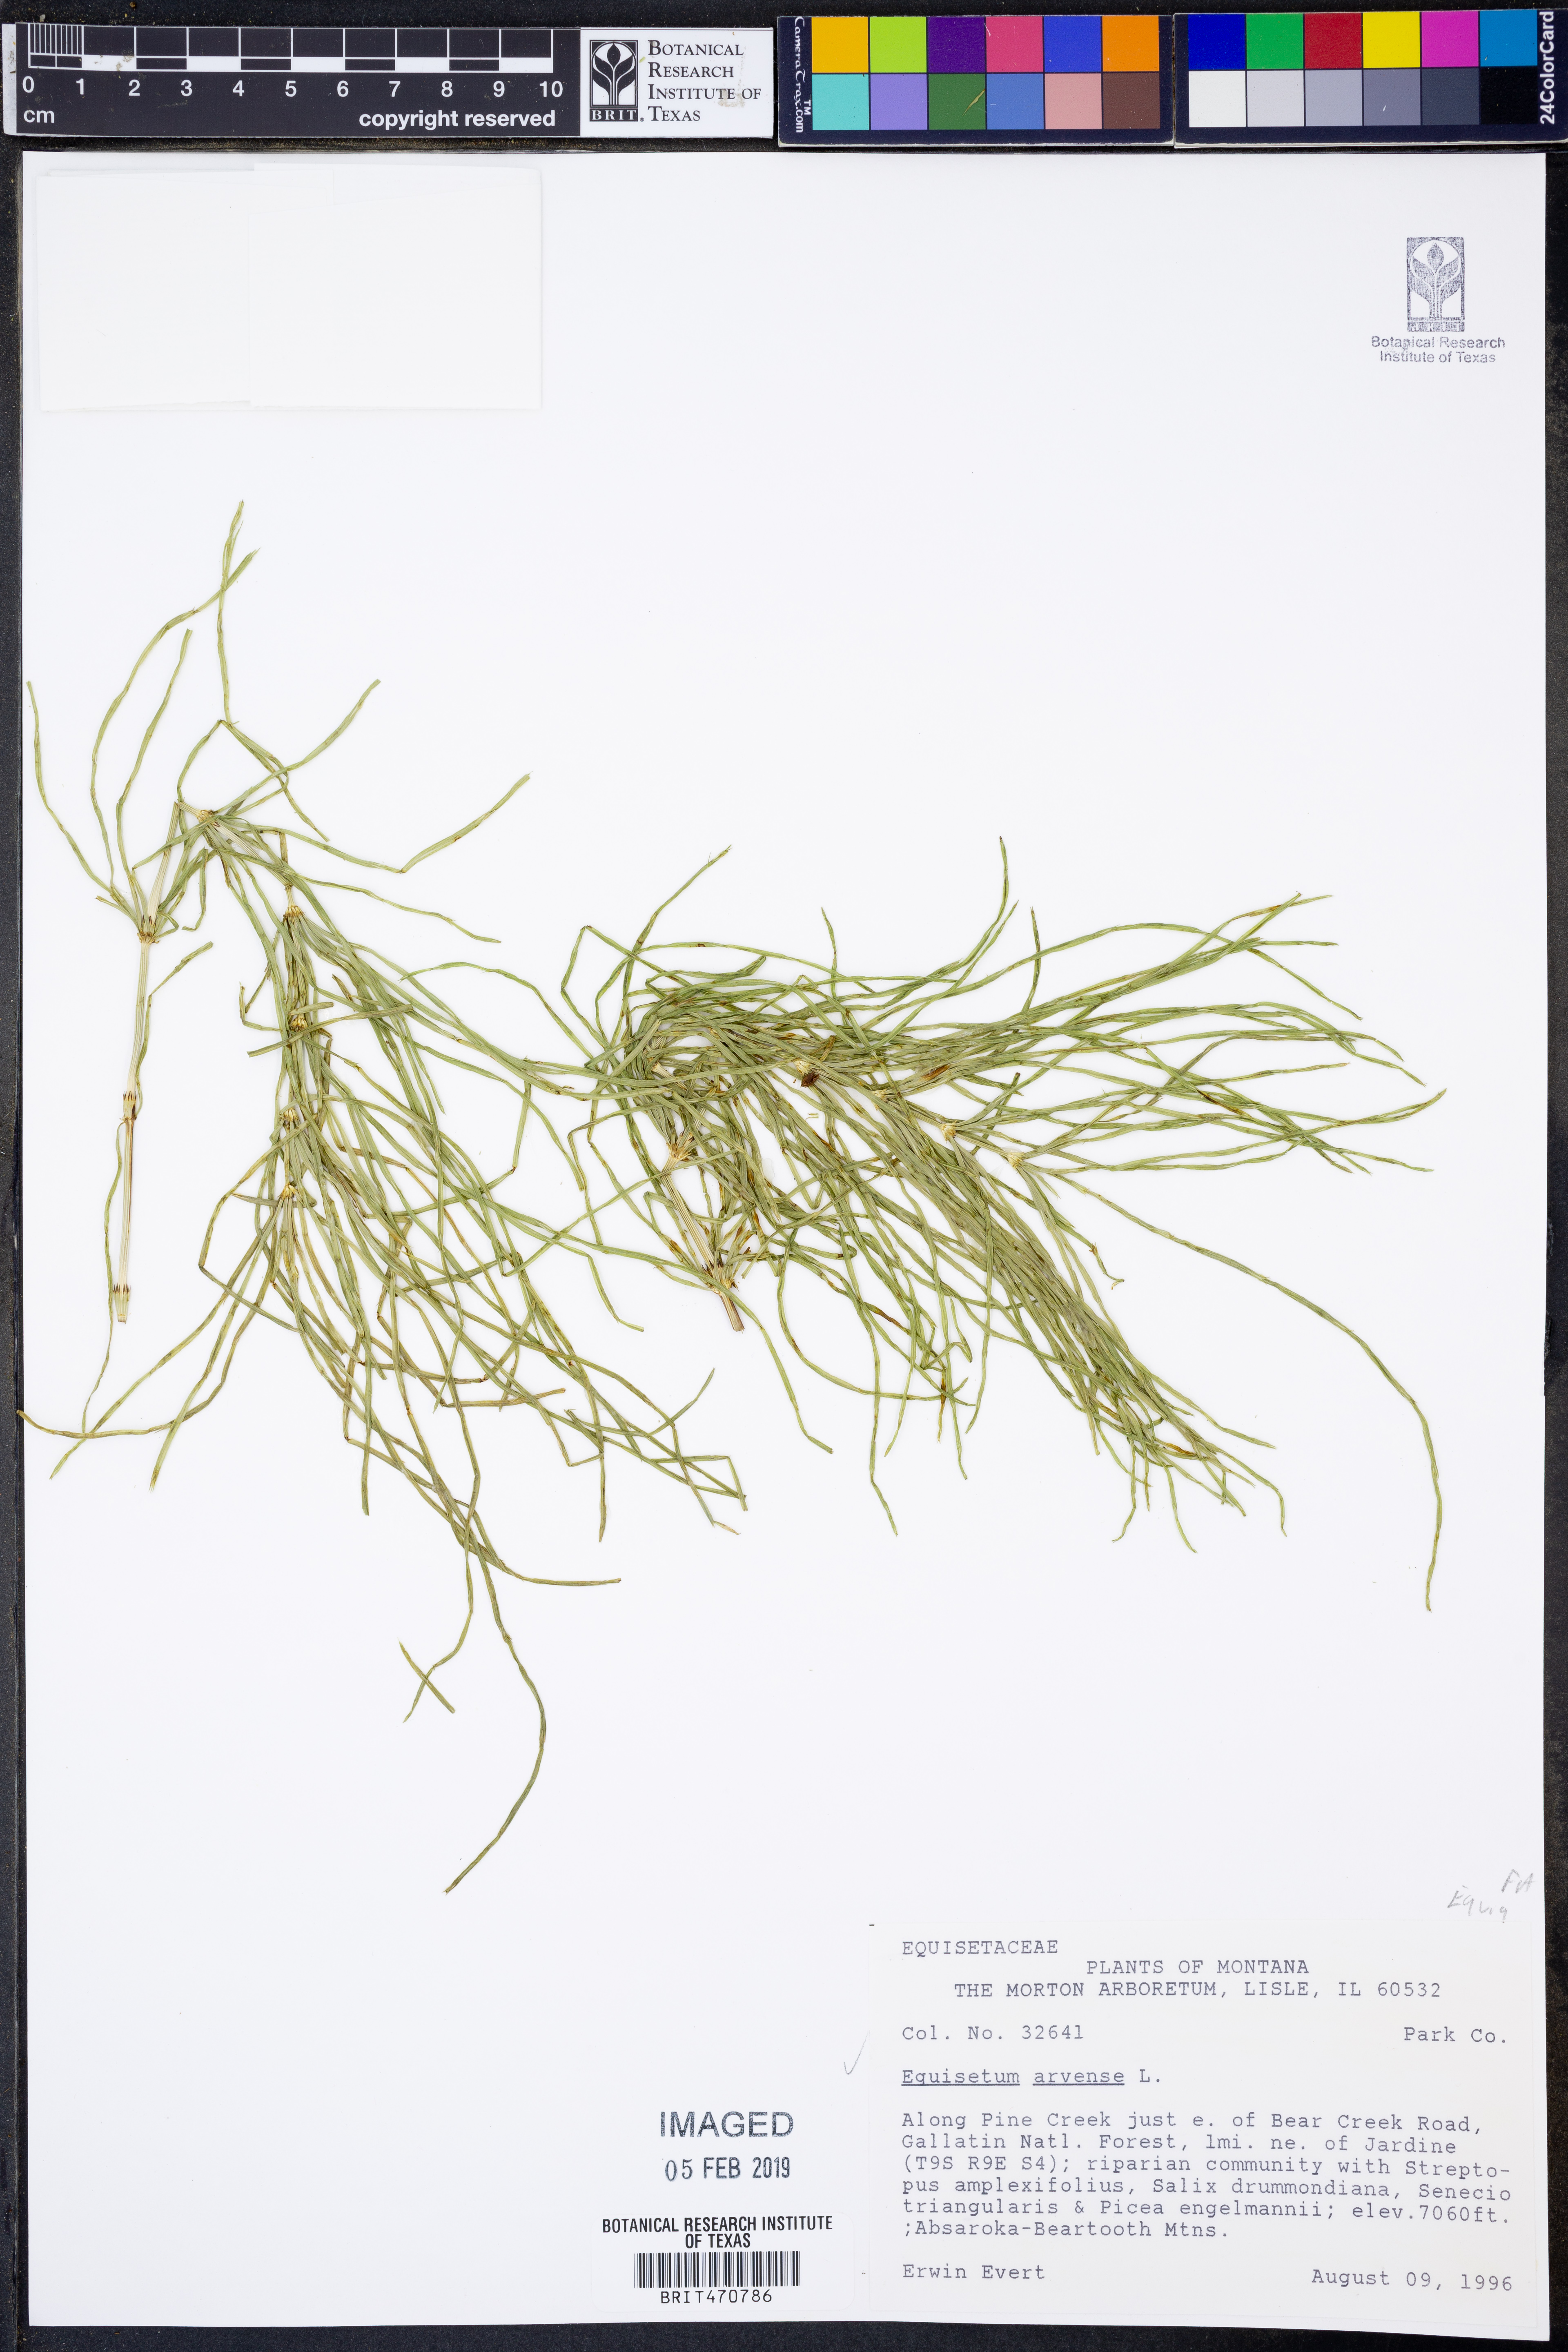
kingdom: Plantae
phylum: Tracheophyta
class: Polypodiopsida
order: Equisetales
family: Equisetaceae
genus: Equisetum
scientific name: Equisetum arvense
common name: Field horsetail
